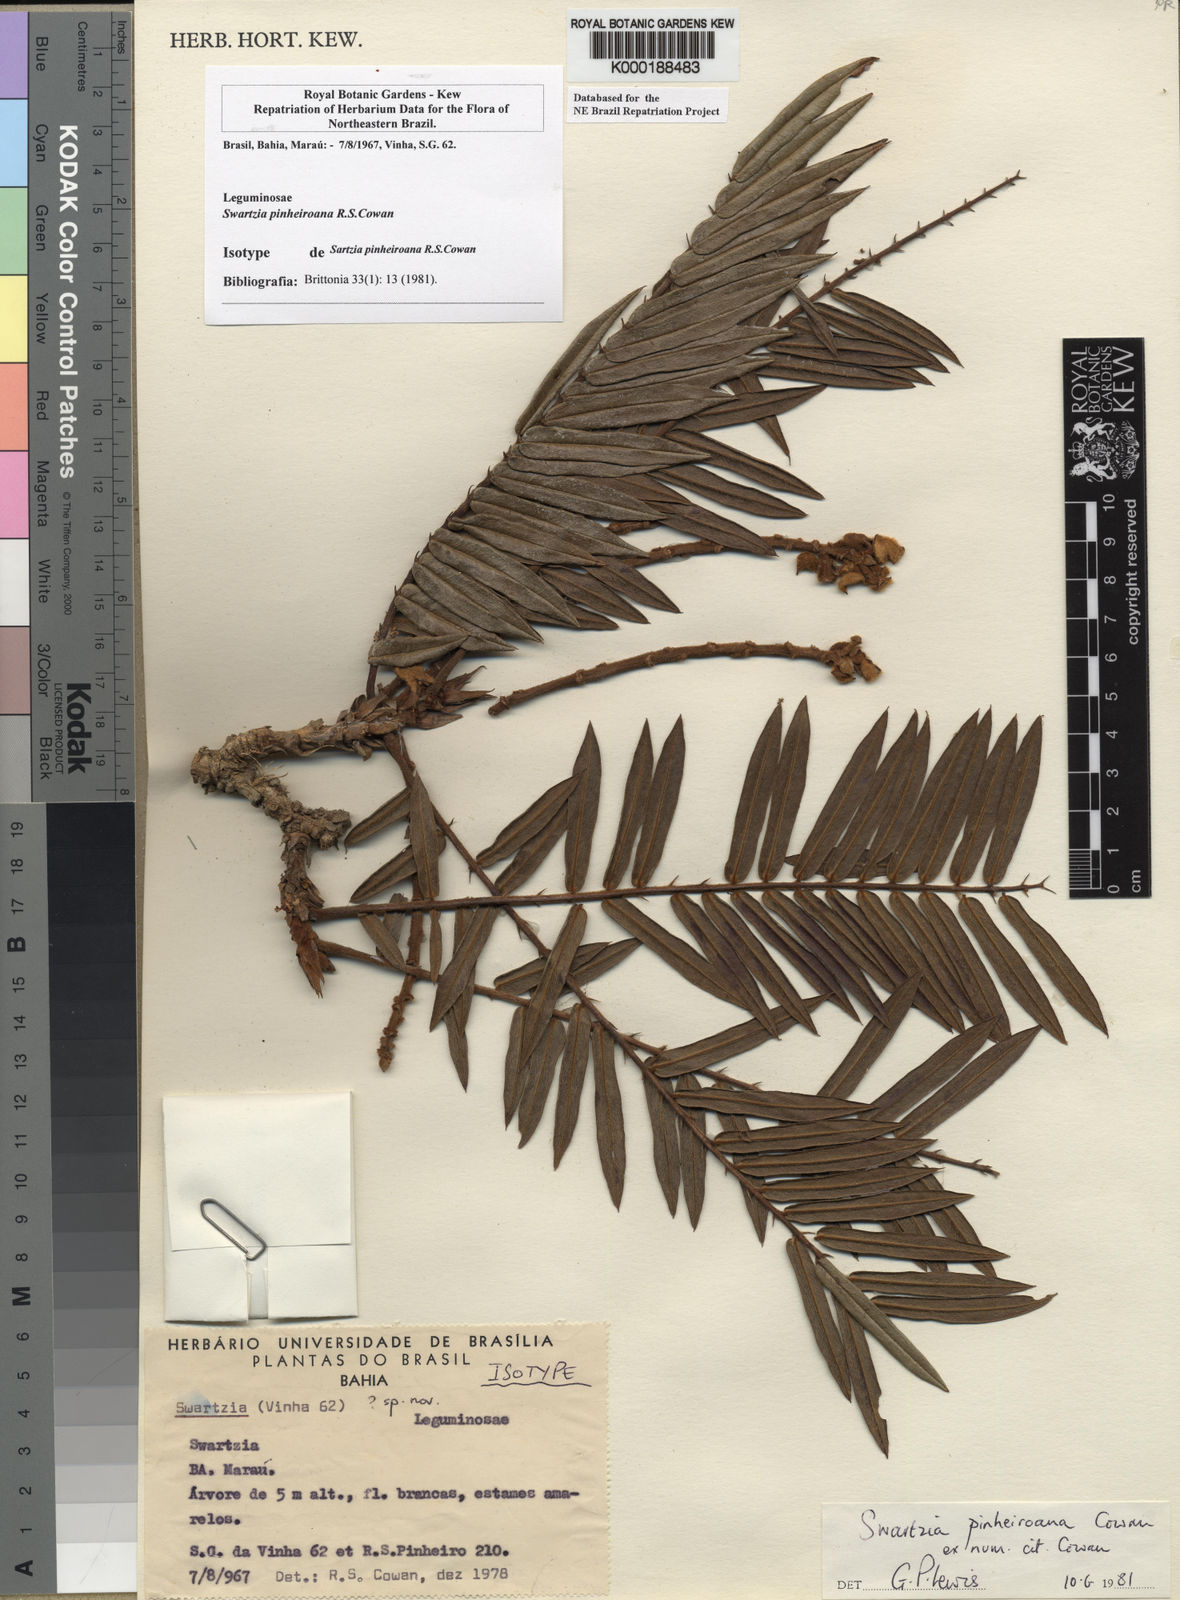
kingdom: Plantae
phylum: Tracheophyta
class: Magnoliopsida
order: Fabales
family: Fabaceae
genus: Swartzia
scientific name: Swartzia pinheiroana
